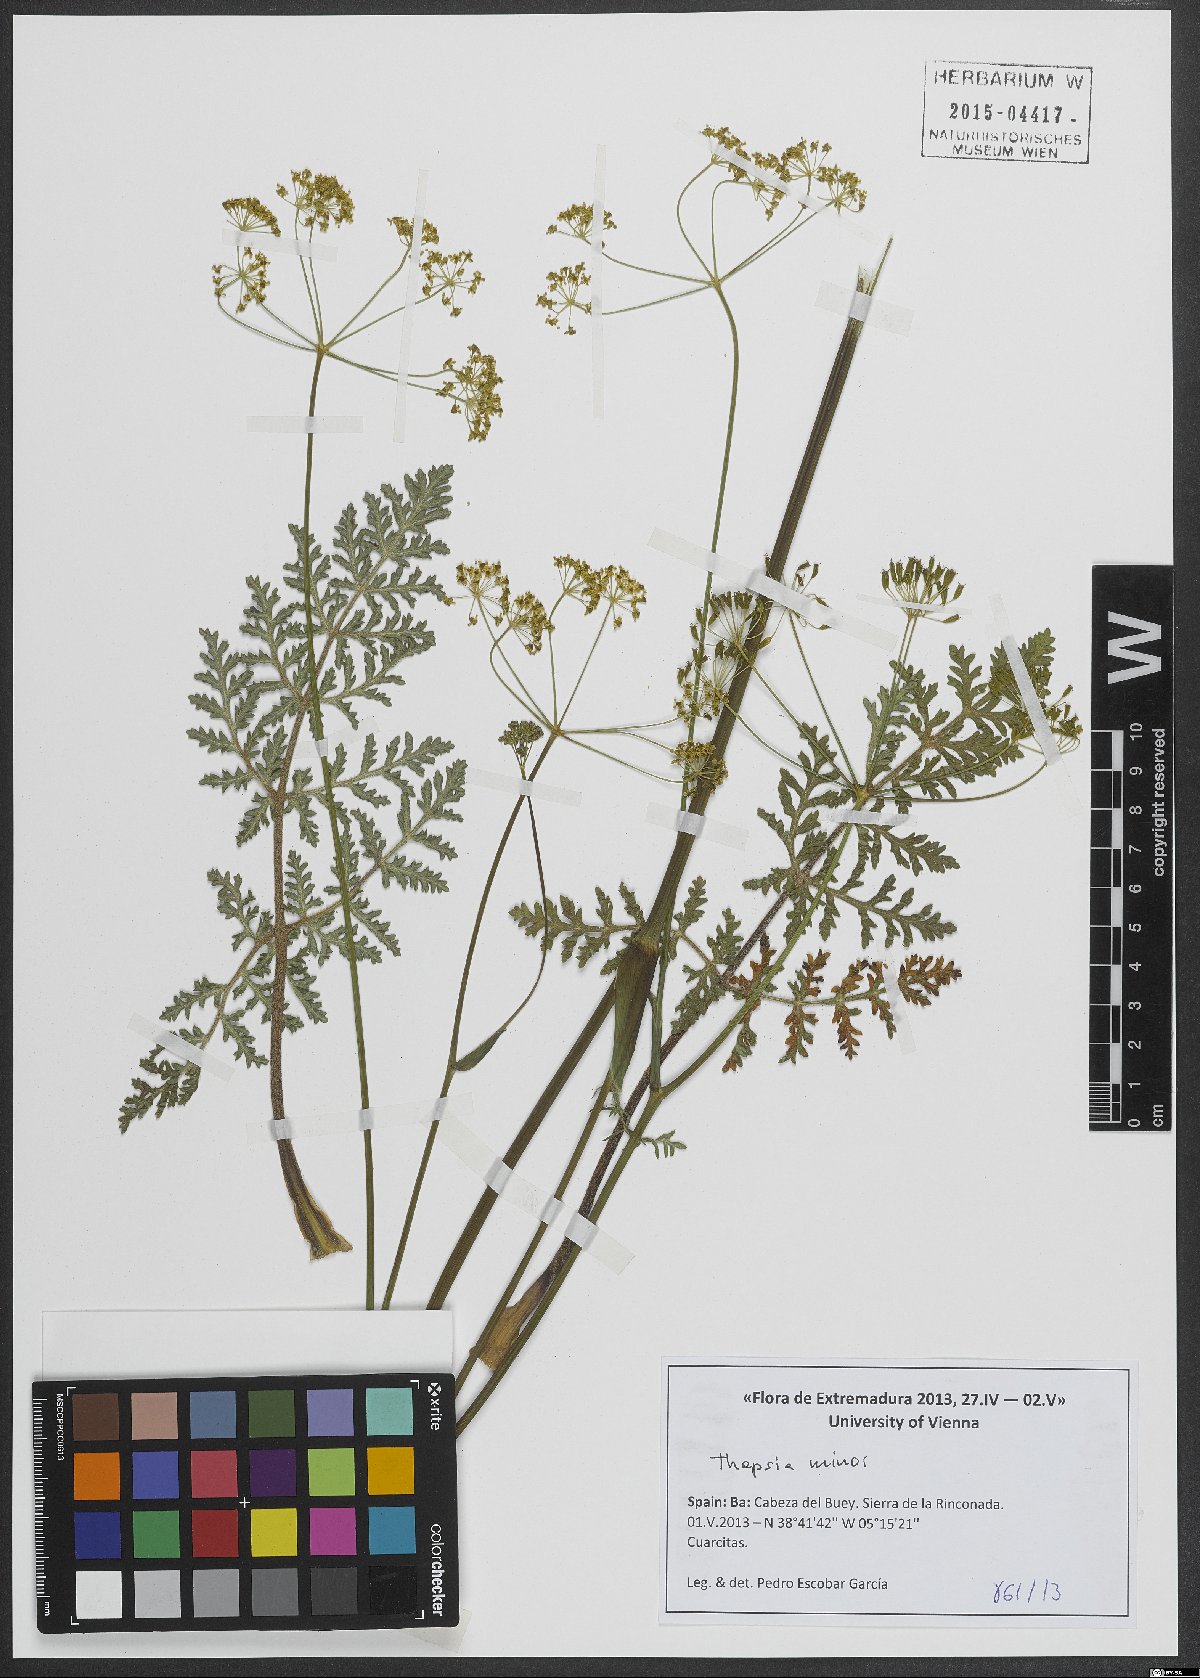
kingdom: Plantae
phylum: Tracheophyta
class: Magnoliopsida
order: Apiales
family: Apiaceae
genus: Thapsia
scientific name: Thapsia minor
